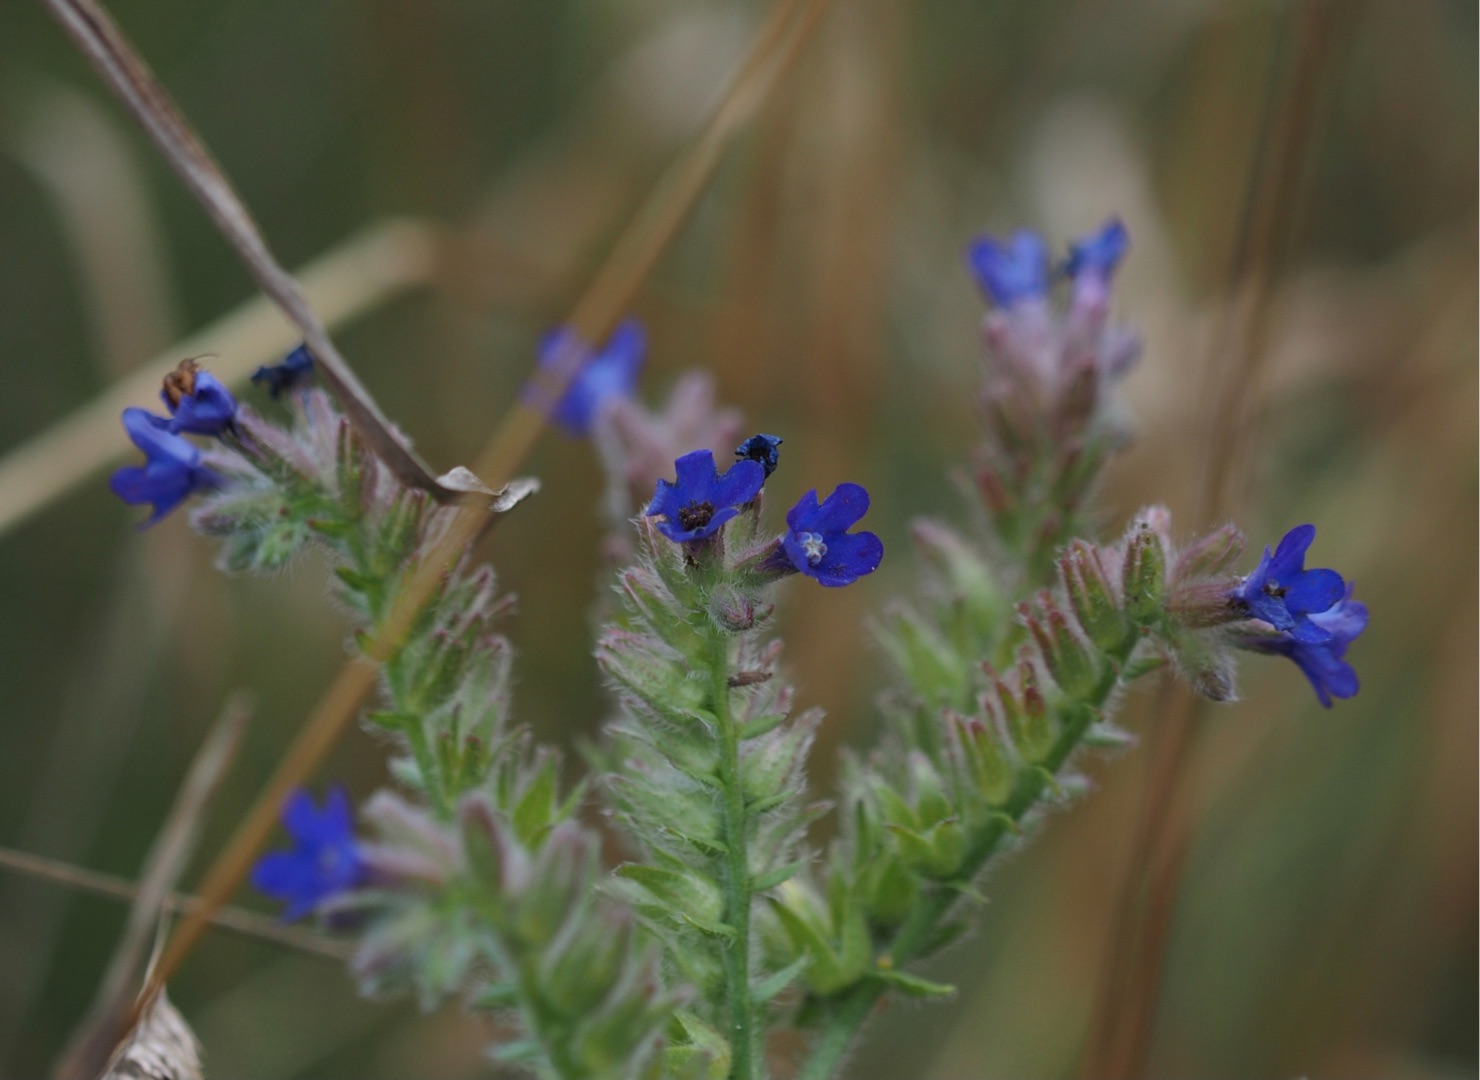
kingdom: Plantae
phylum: Tracheophyta
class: Magnoliopsida
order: Boraginales
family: Boraginaceae
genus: Anchusa
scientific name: Anchusa officinalis
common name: Læge-oksetunge
